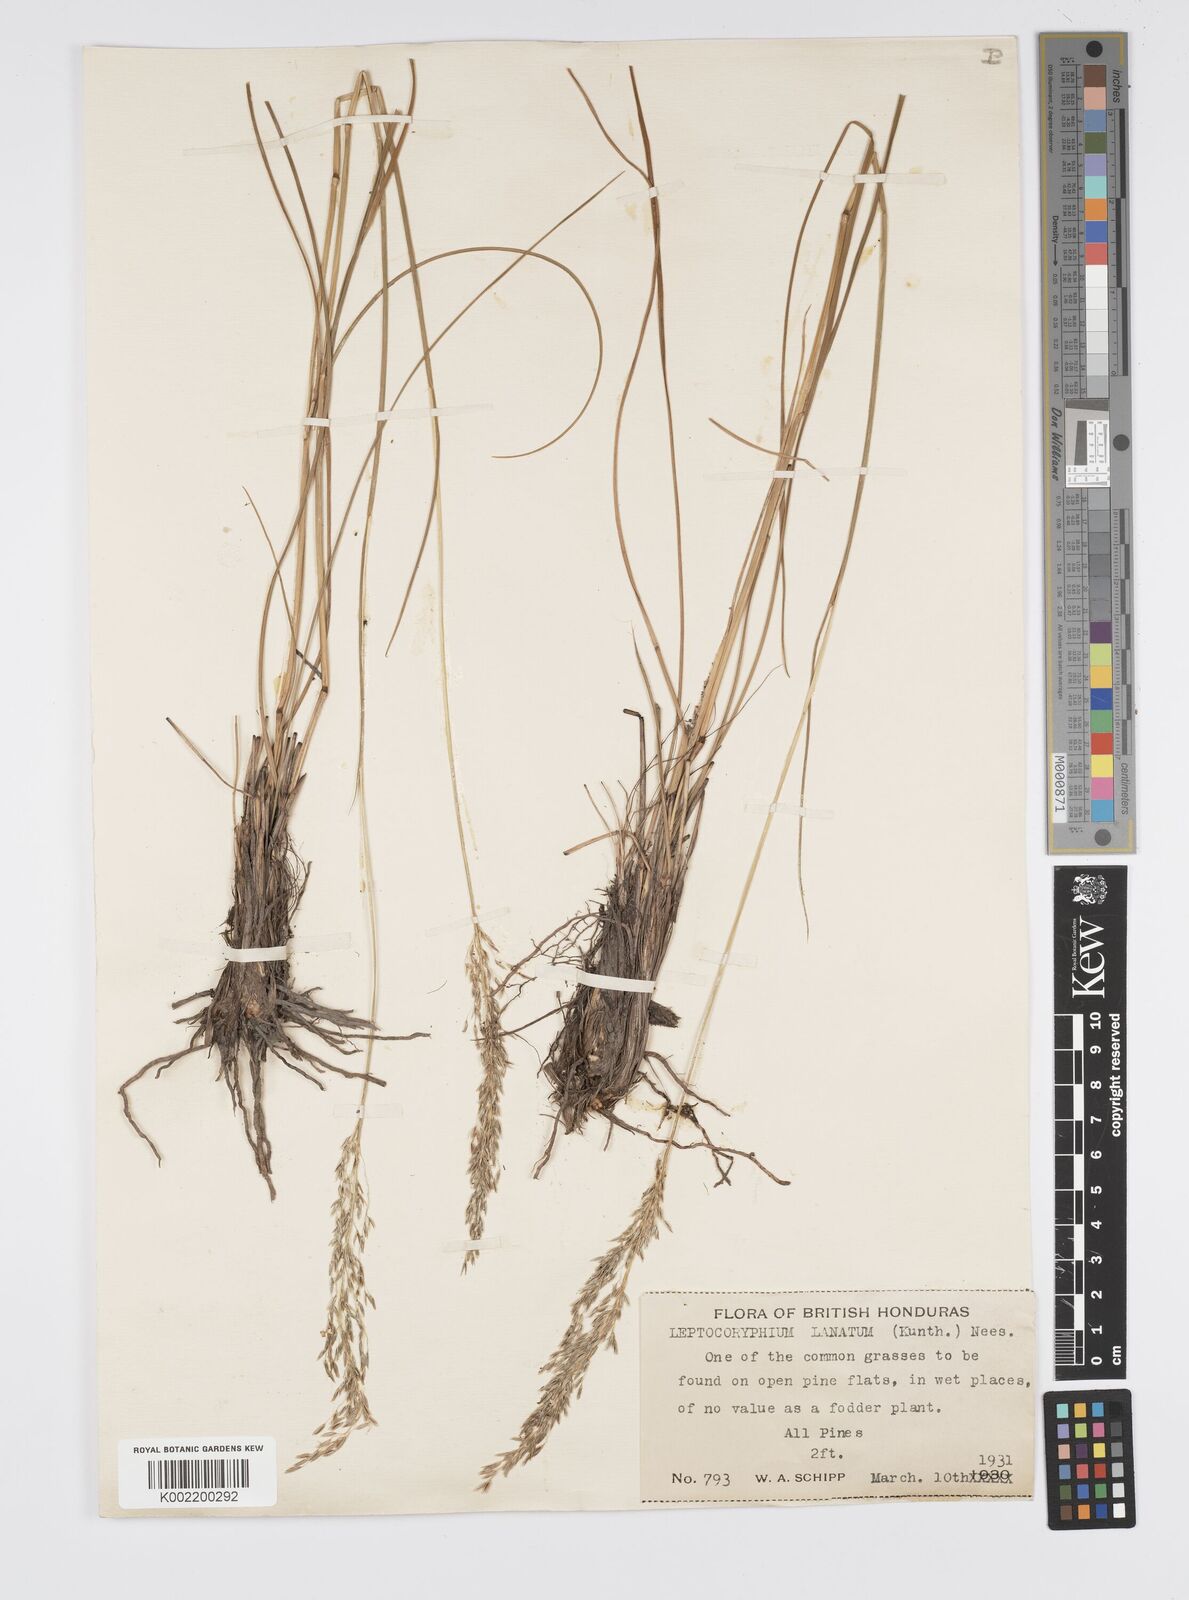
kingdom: Plantae
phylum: Tracheophyta
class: Liliopsida
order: Poales
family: Poaceae
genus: Anthenantia
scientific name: Anthenantia lanata
